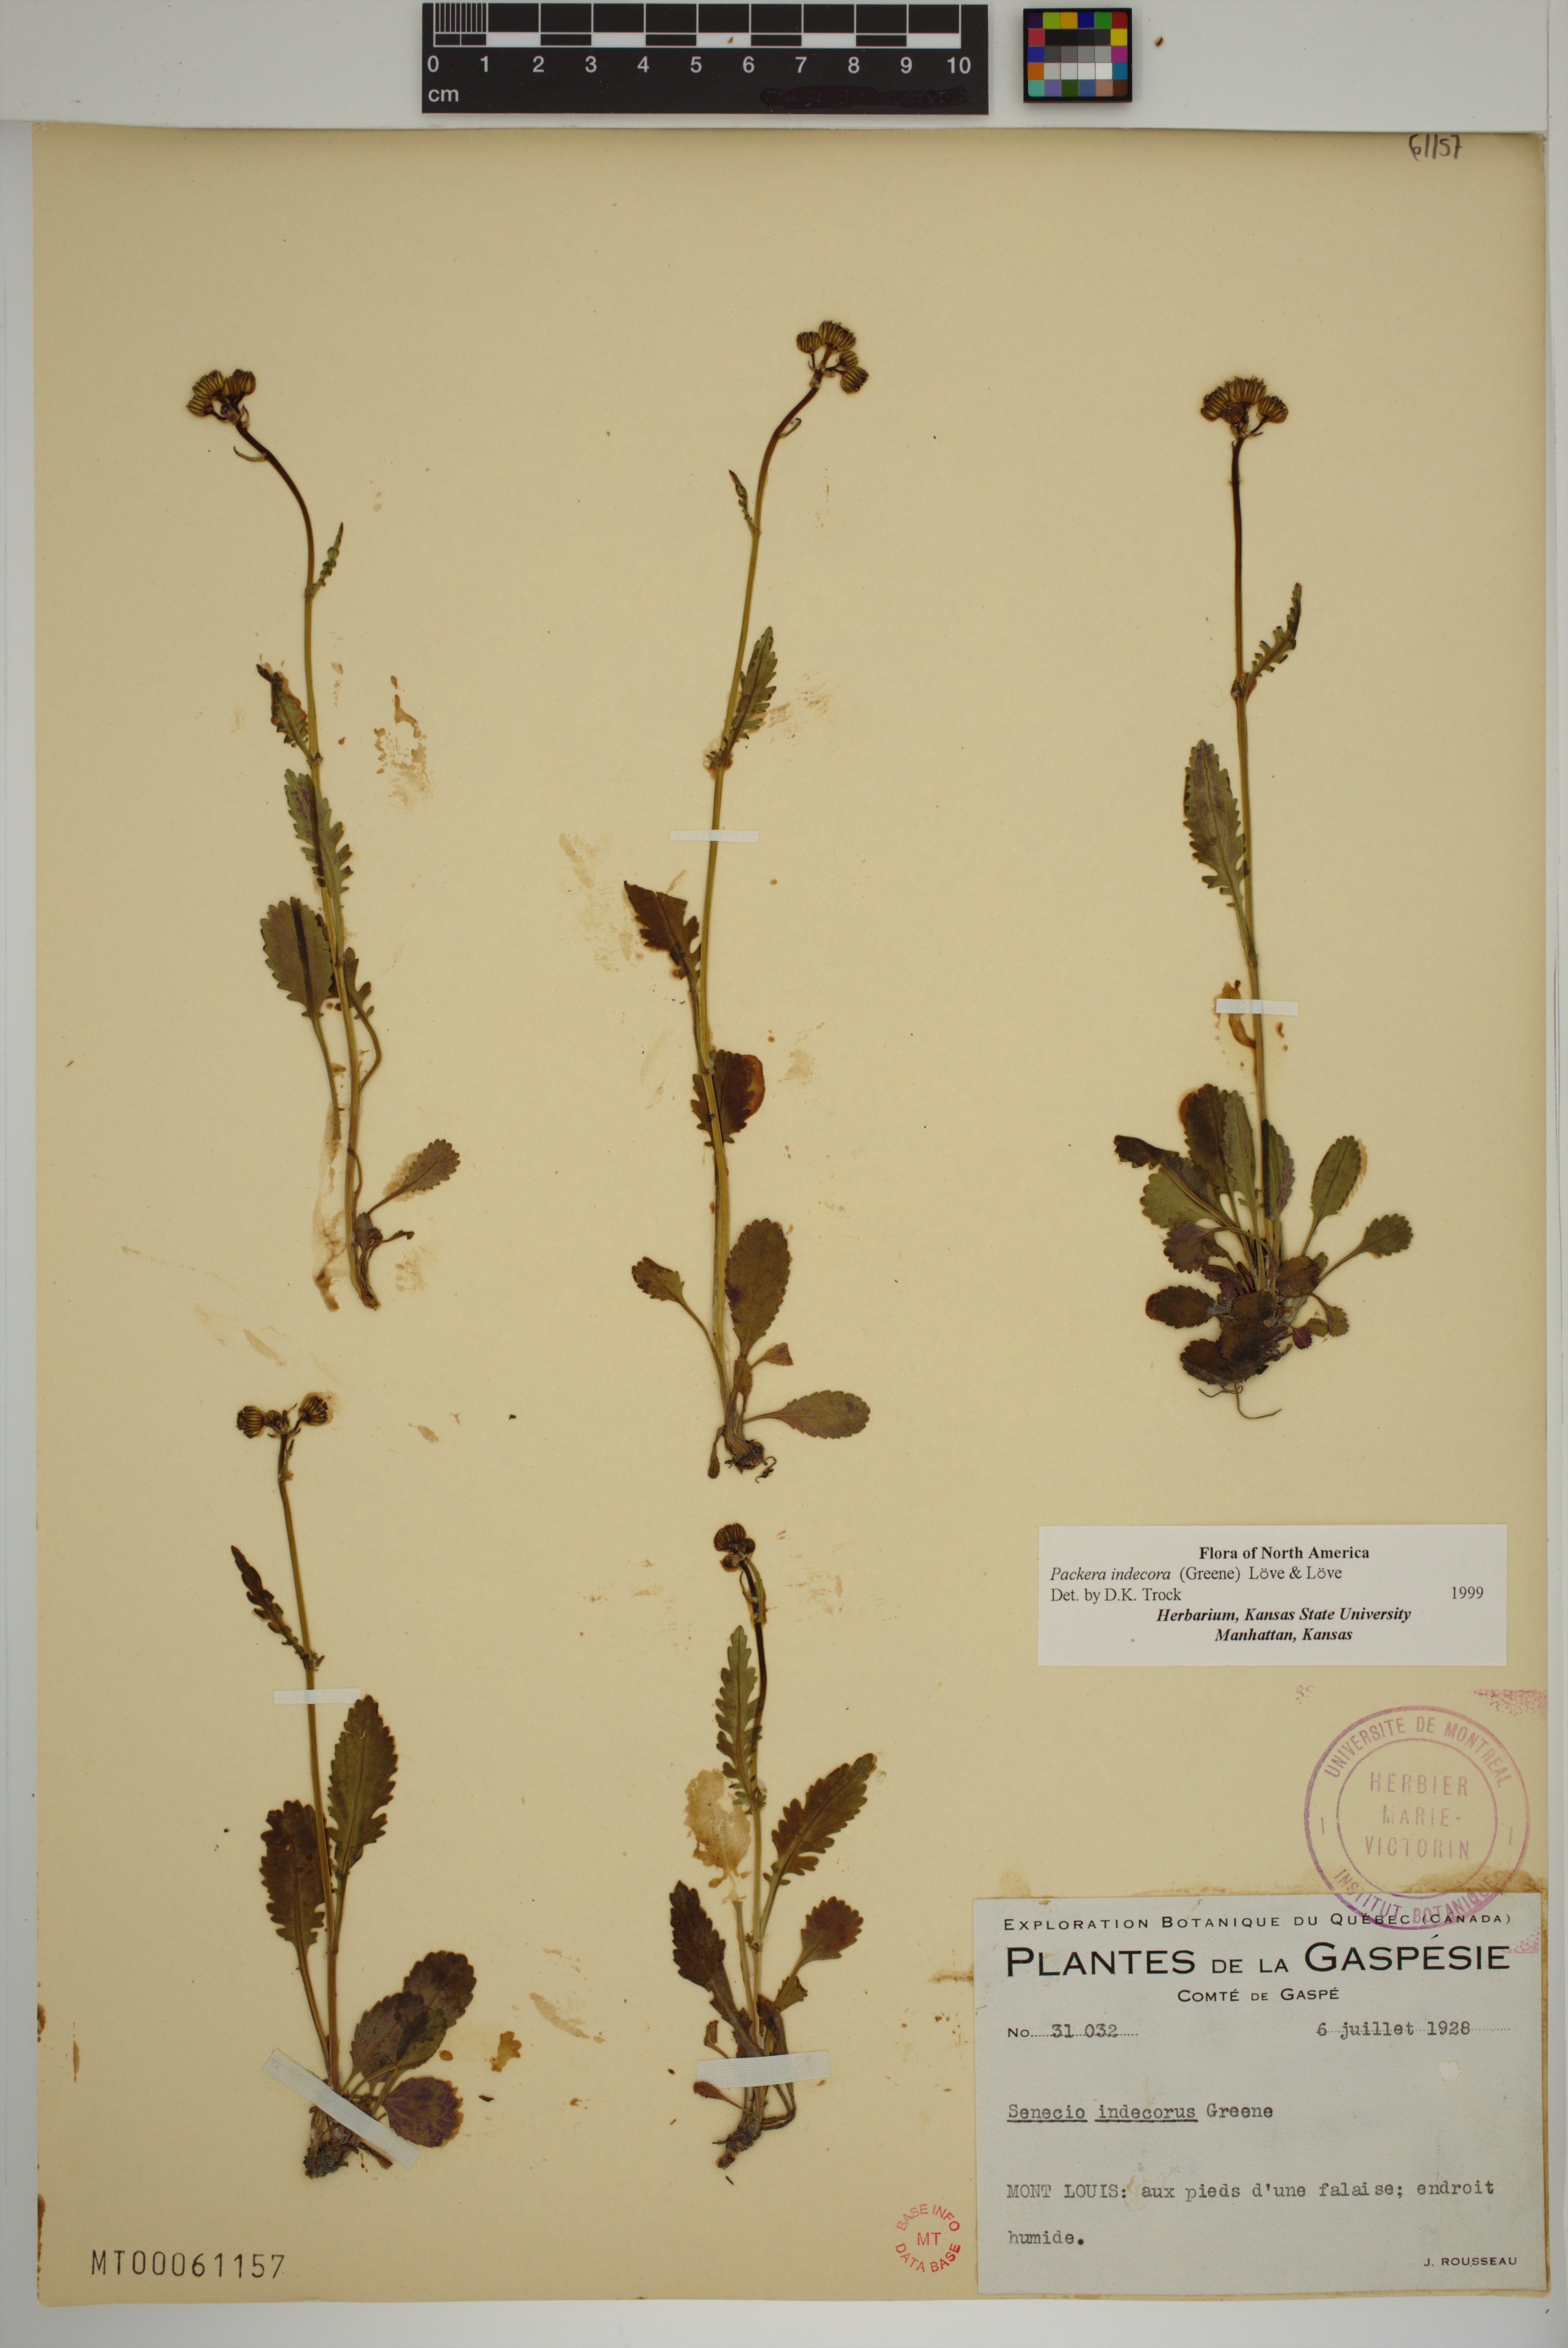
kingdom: Plantae
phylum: Tracheophyta
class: Magnoliopsida
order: Asterales
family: Asteraceae
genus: Packera
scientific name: Packera indecora
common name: Elegant groundsel
